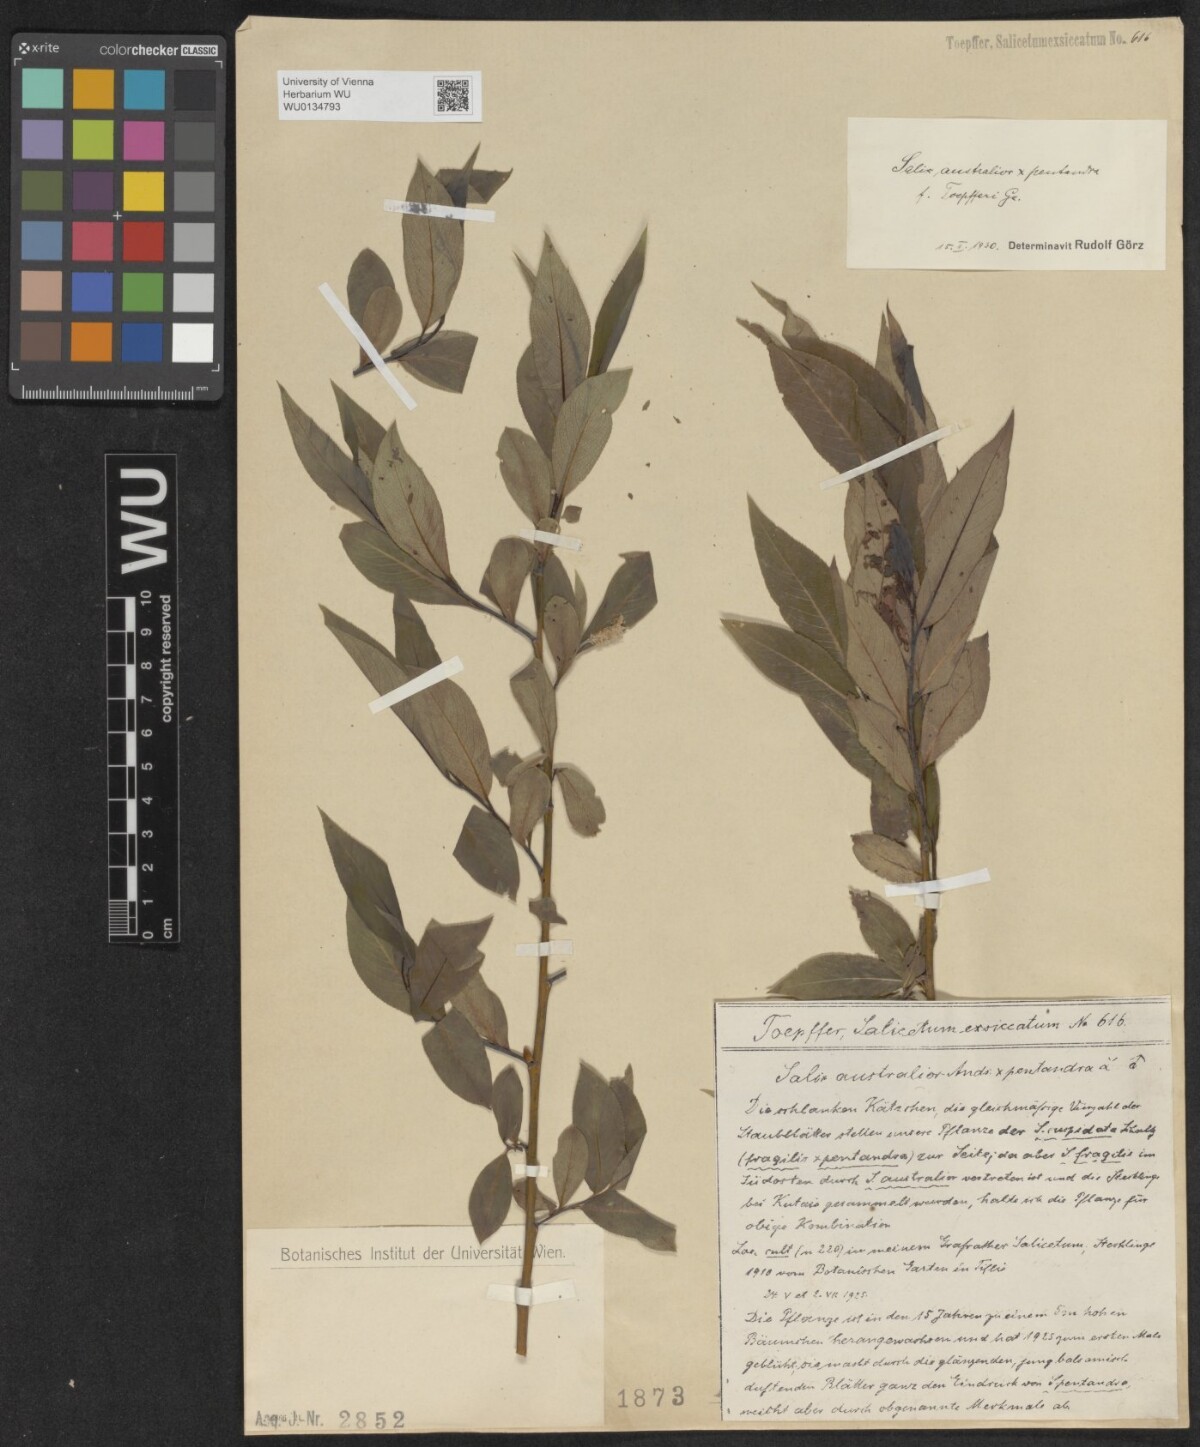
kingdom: Plantae
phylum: Tracheophyta
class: Magnoliopsida
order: Malpighiales
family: Salicaceae
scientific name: Salicaceae
